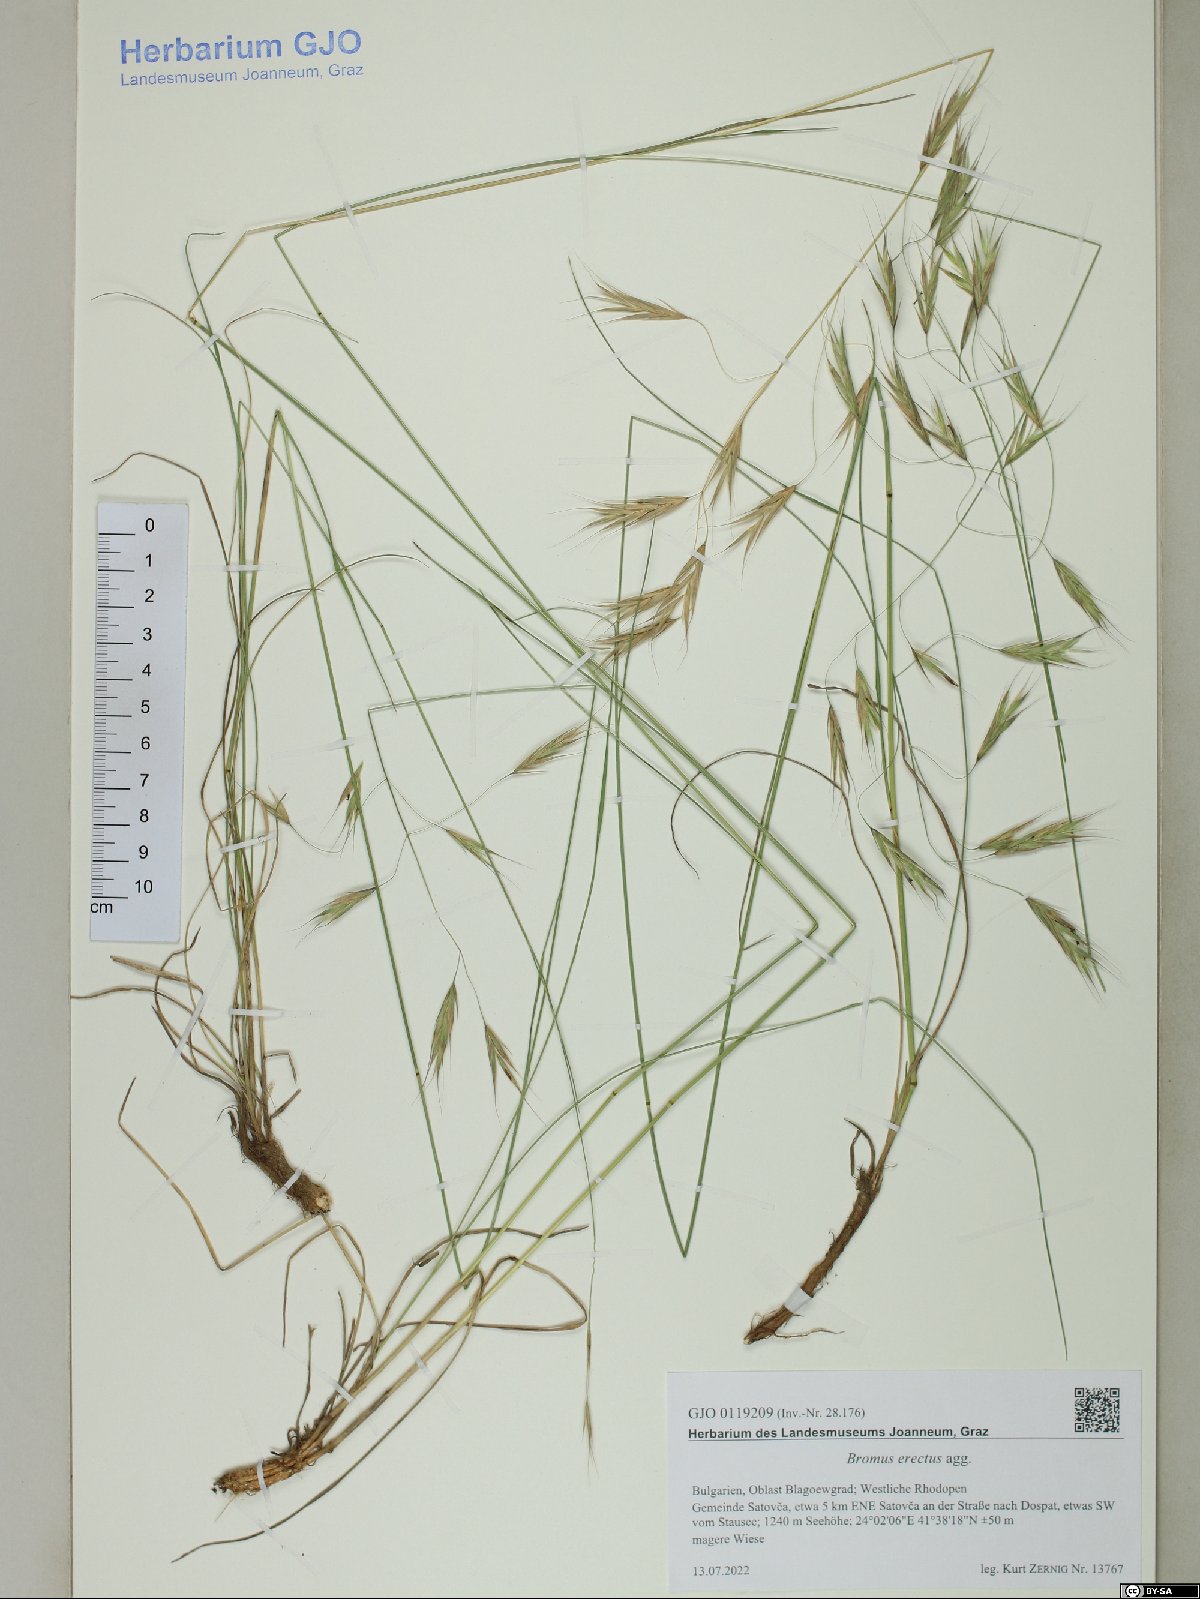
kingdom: Plantae
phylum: Tracheophyta
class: Liliopsida
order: Poales
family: Poaceae
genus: Bromus
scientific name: Bromus erectus
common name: Erect brome
